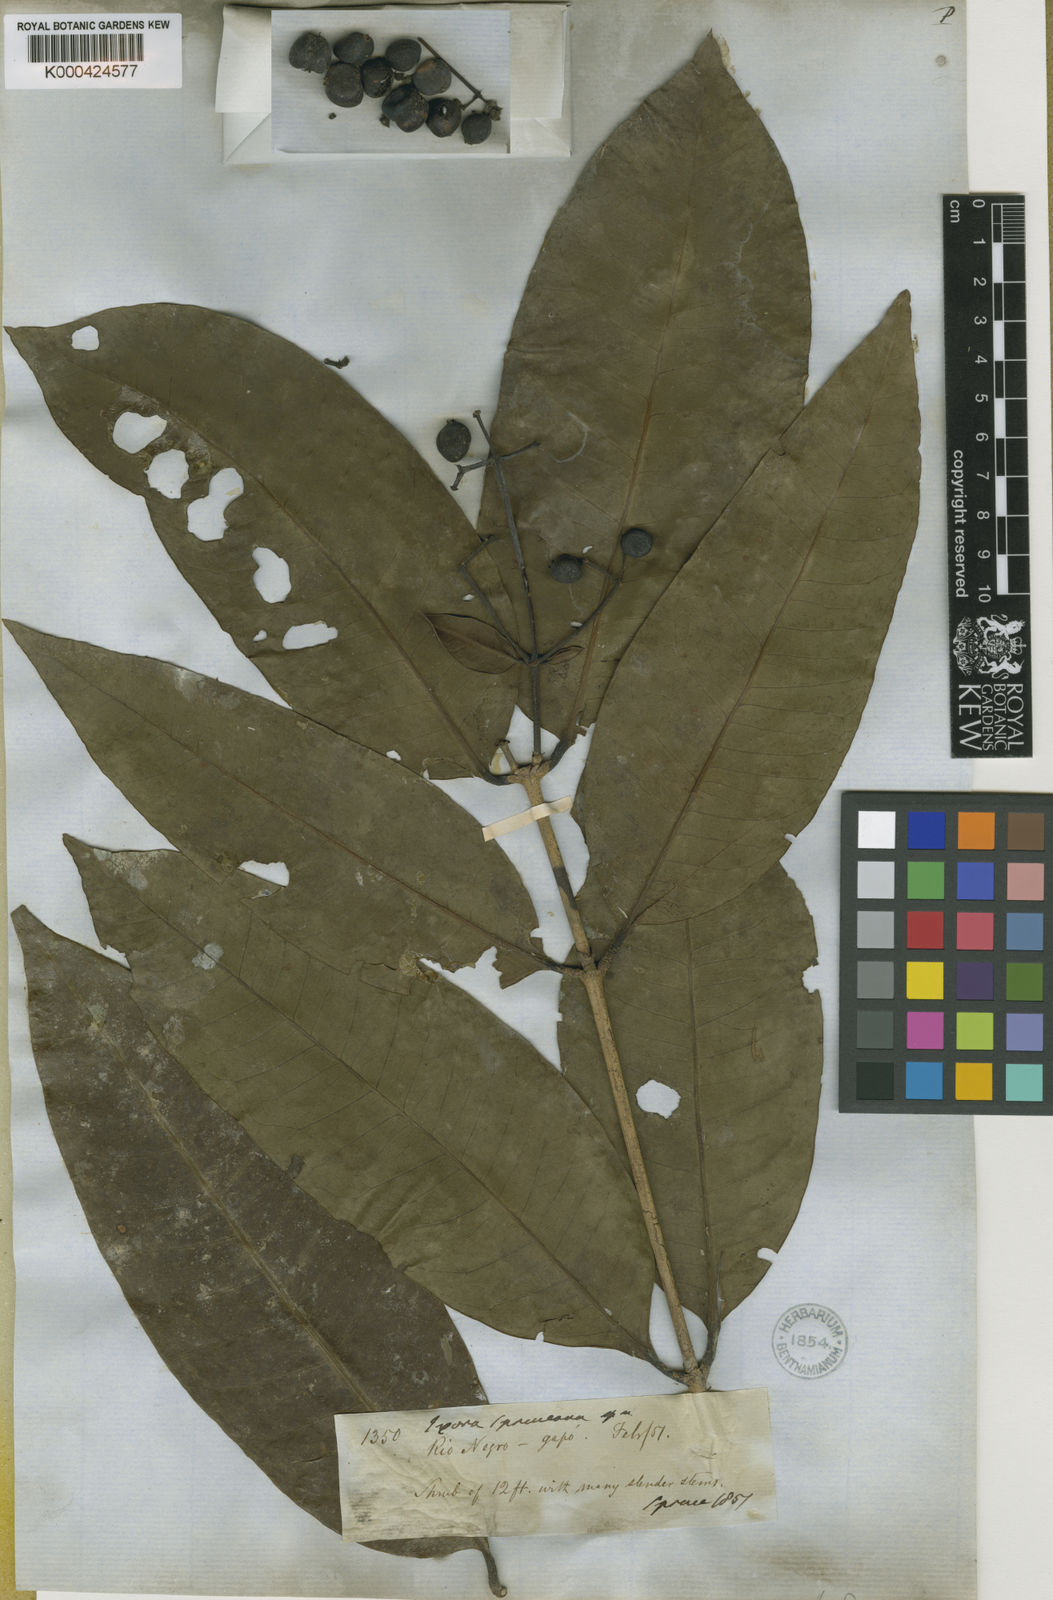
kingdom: Plantae
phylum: Tracheophyta
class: Magnoliopsida
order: Gentianales
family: Rubiaceae
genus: Ixora
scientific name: Ixora
